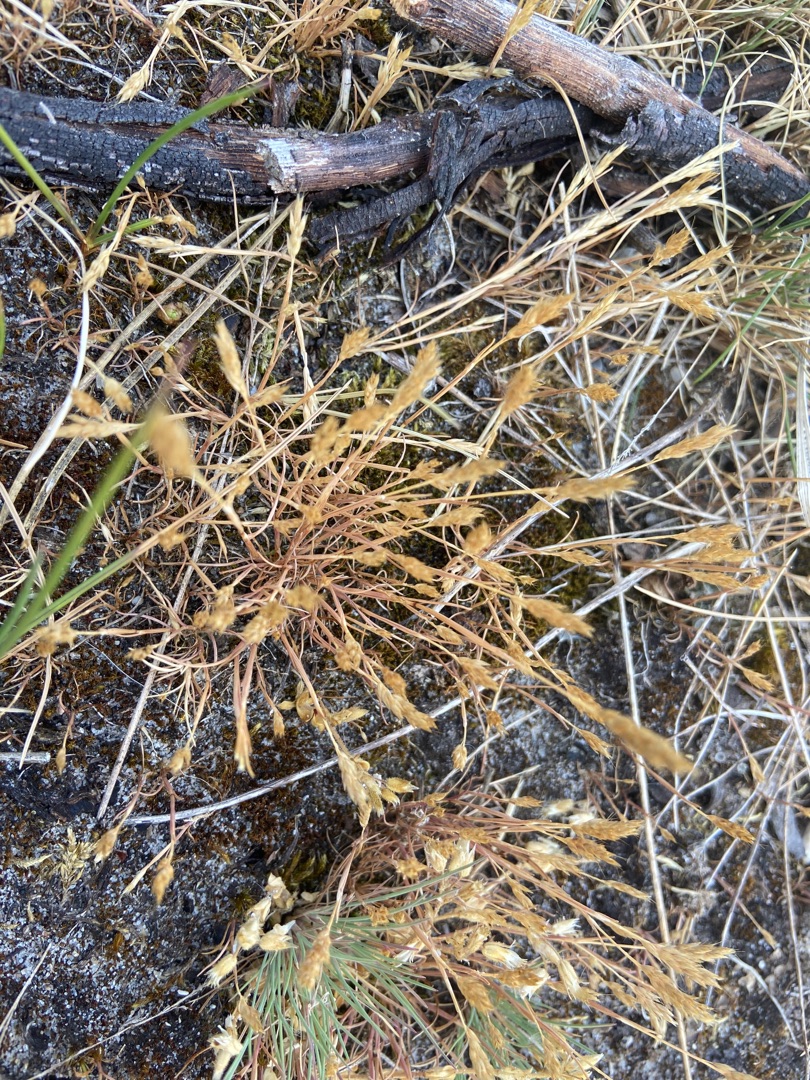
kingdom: Plantae
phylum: Tracheophyta
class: Liliopsida
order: Poales
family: Poaceae
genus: Aira
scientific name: Aira praecox
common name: Tidlig dværgbunke
